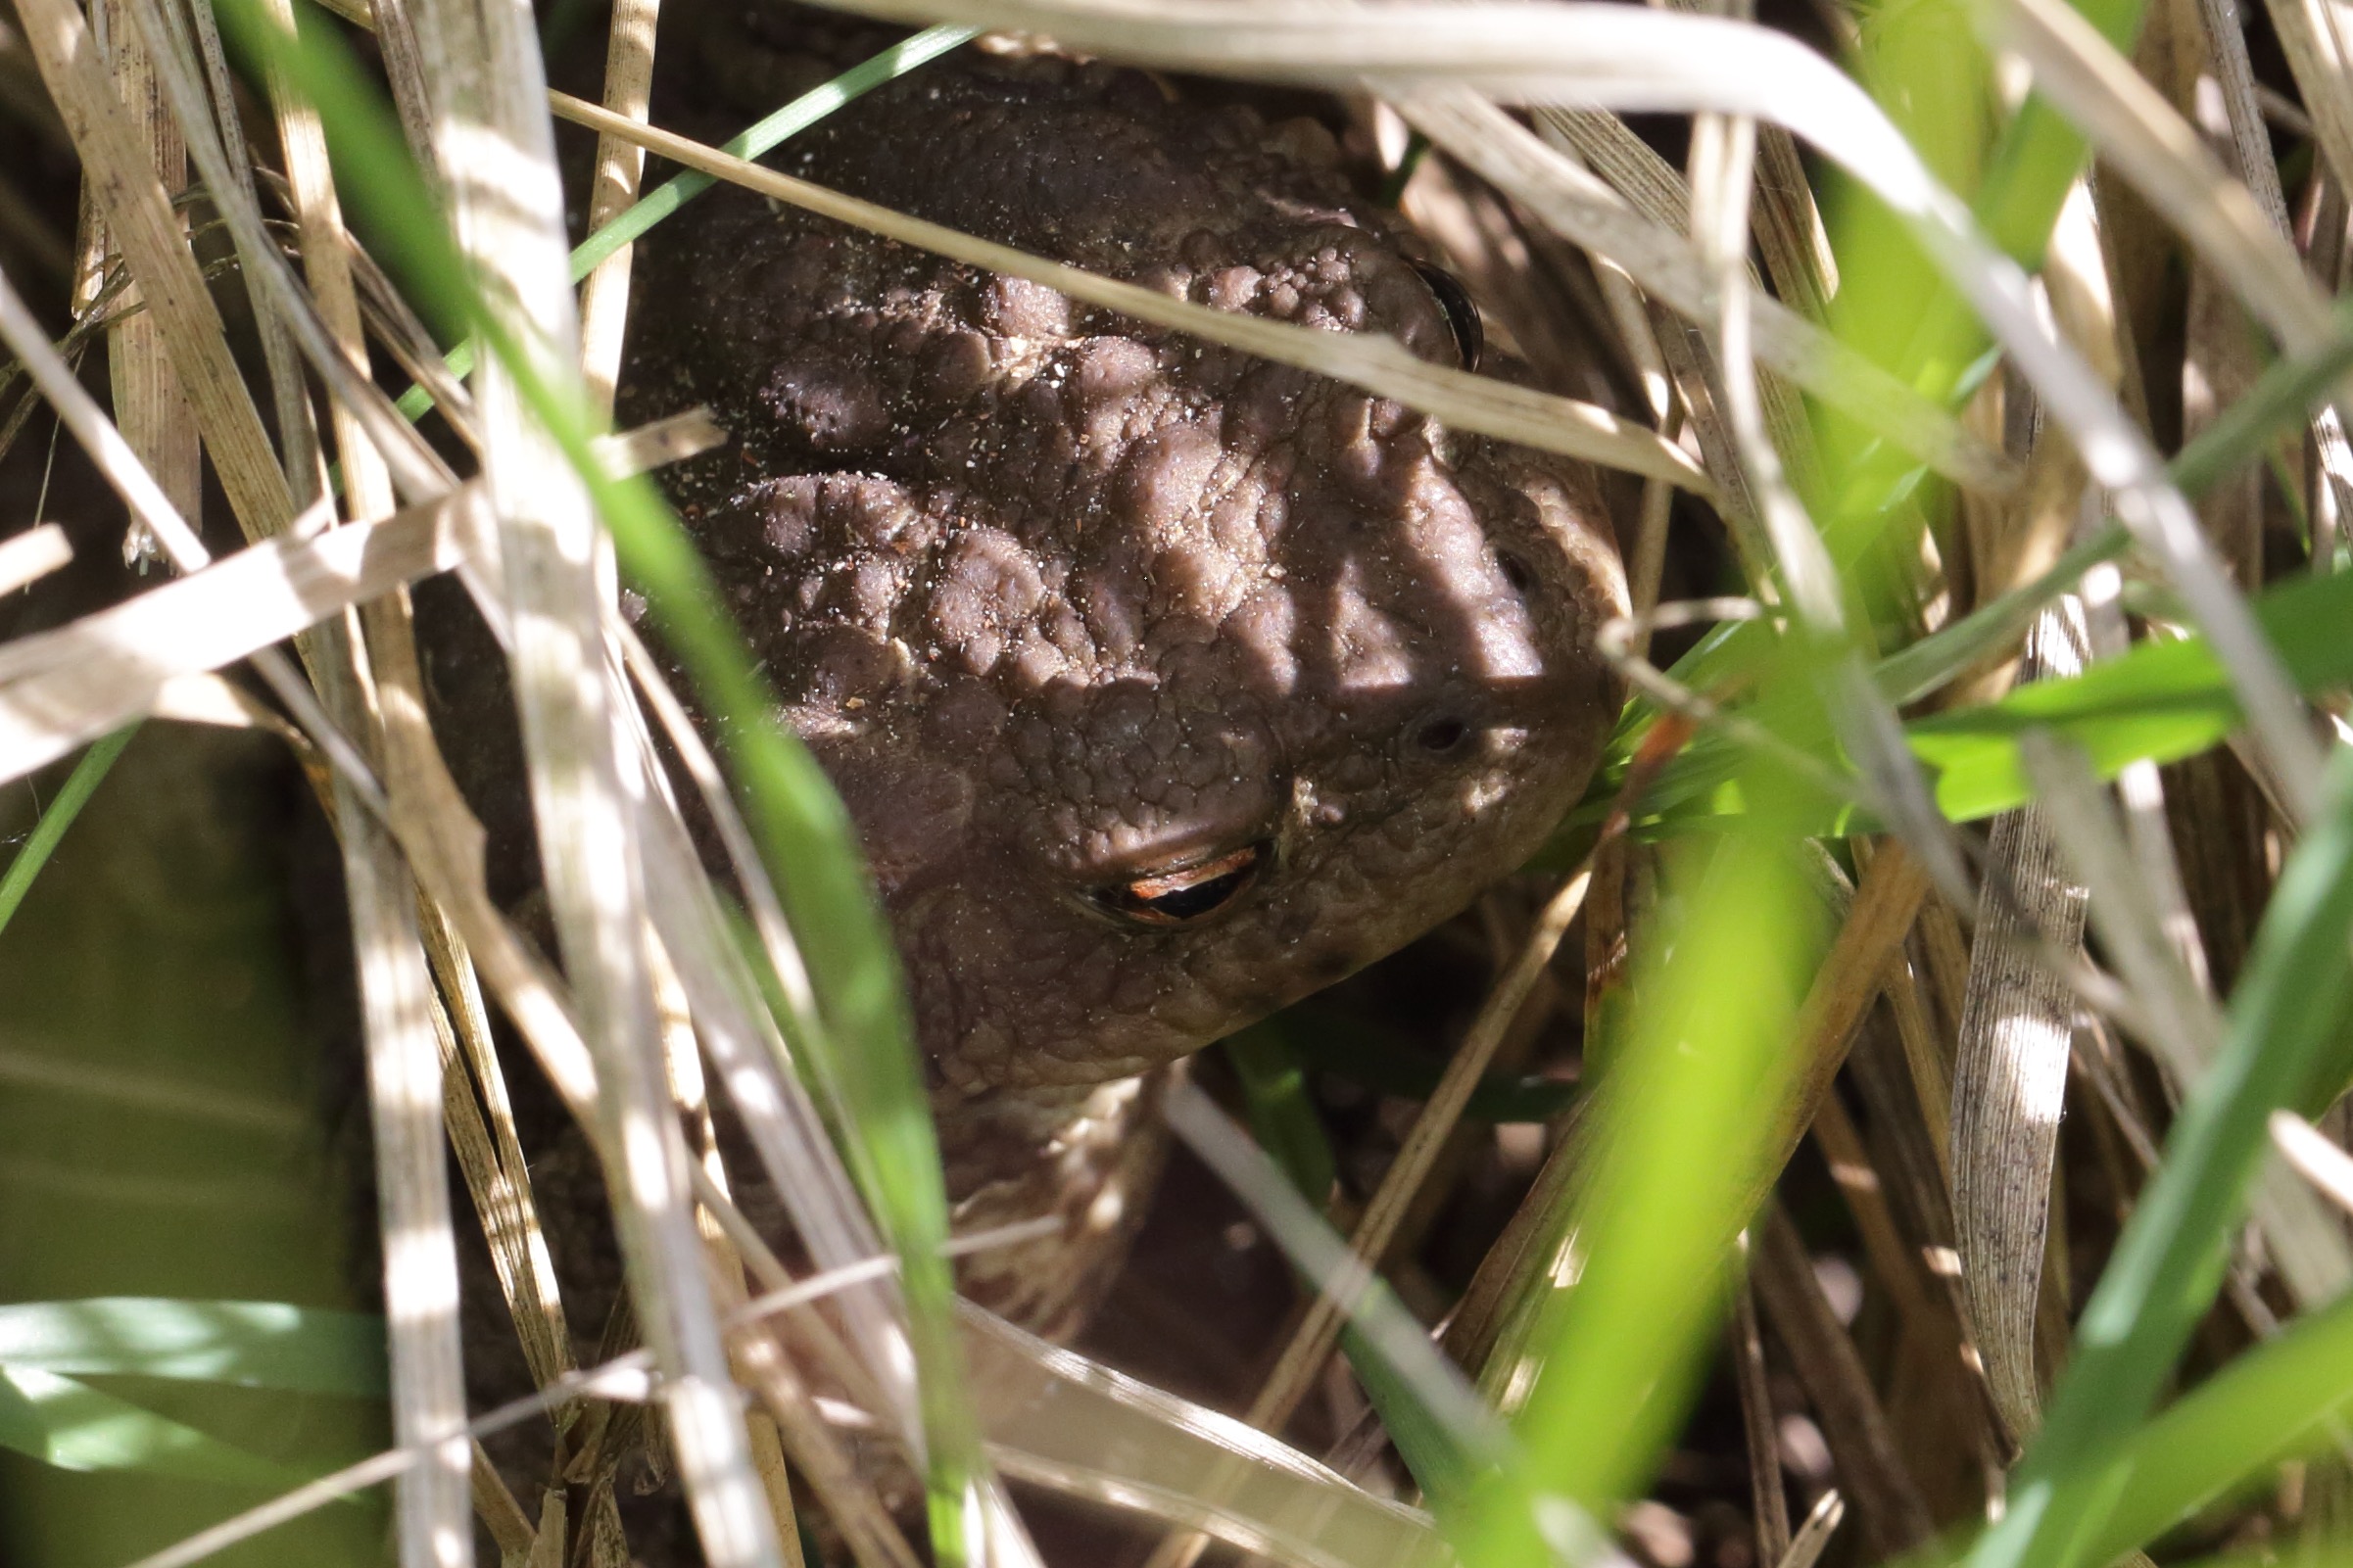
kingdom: Animalia
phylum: Chordata
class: Amphibia
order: Anura
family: Bufonidae
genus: Bufo
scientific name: Bufo bufo
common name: Skrubtudse
